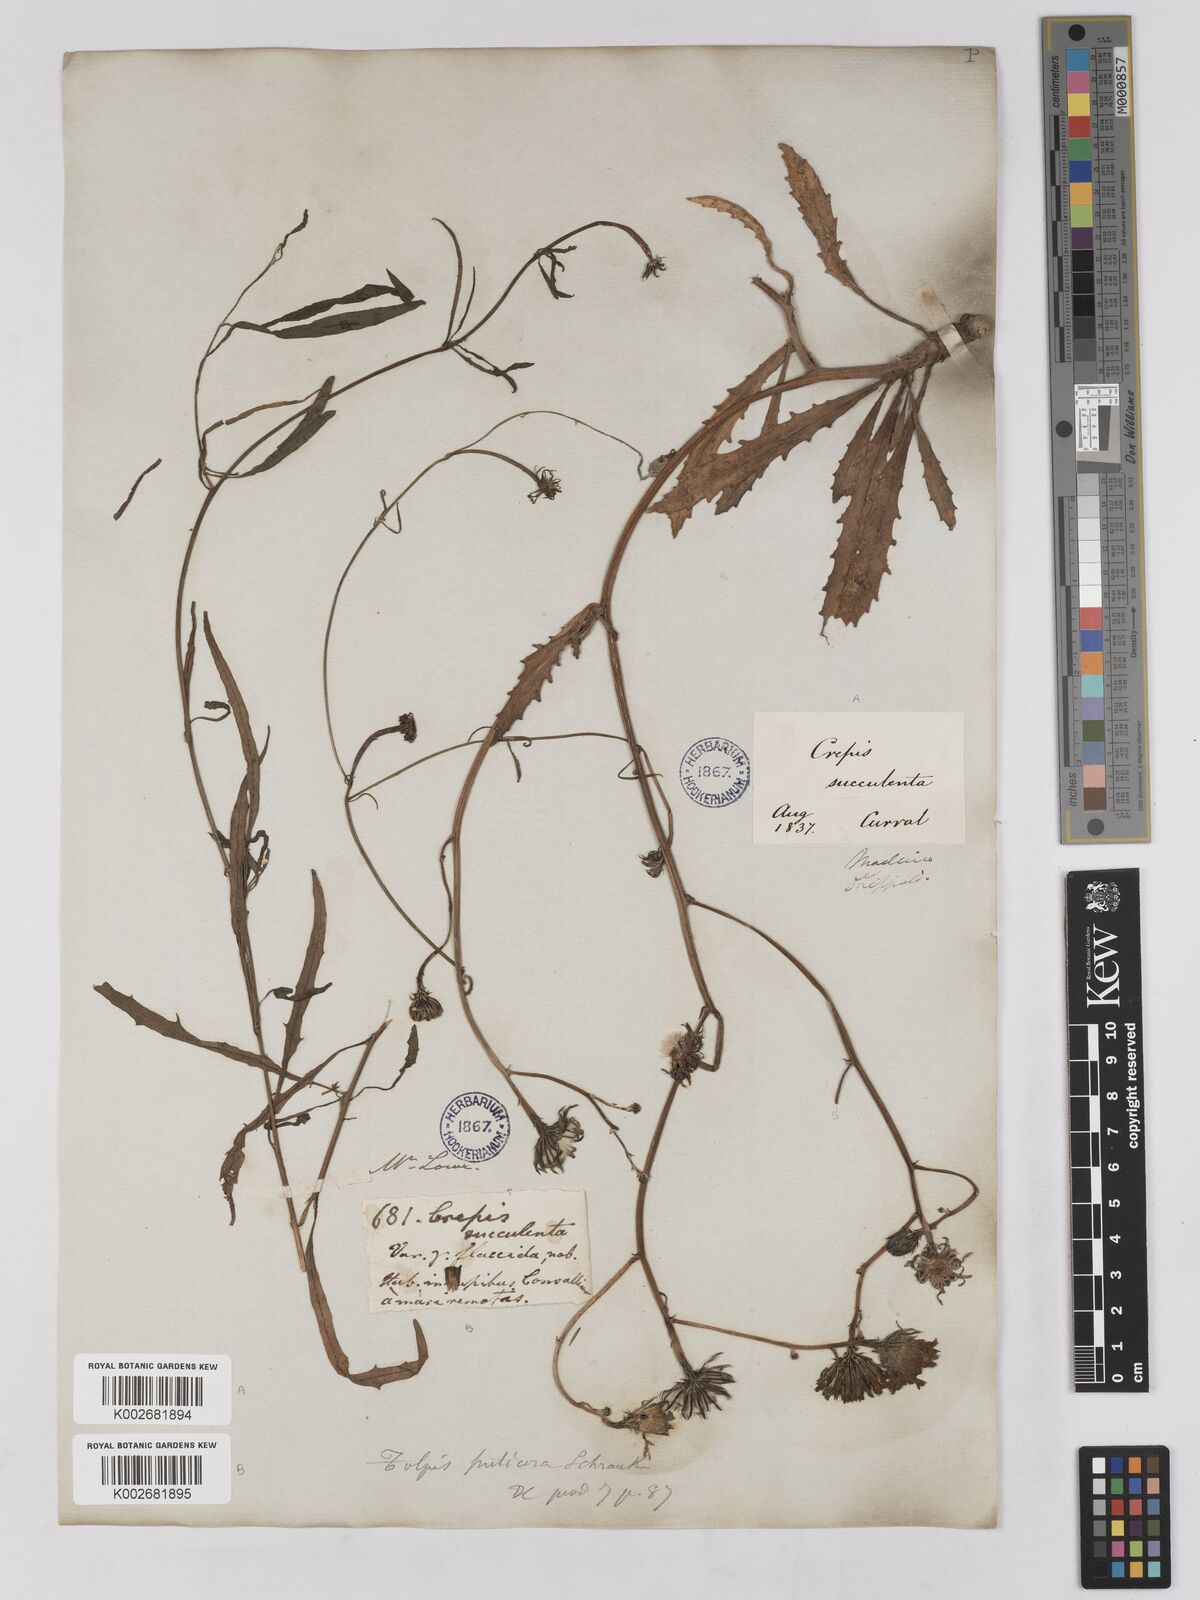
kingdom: Plantae
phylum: Tracheophyta
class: Magnoliopsida
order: Asterales
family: Asteraceae
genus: Tolpis
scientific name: Tolpis succulenta
